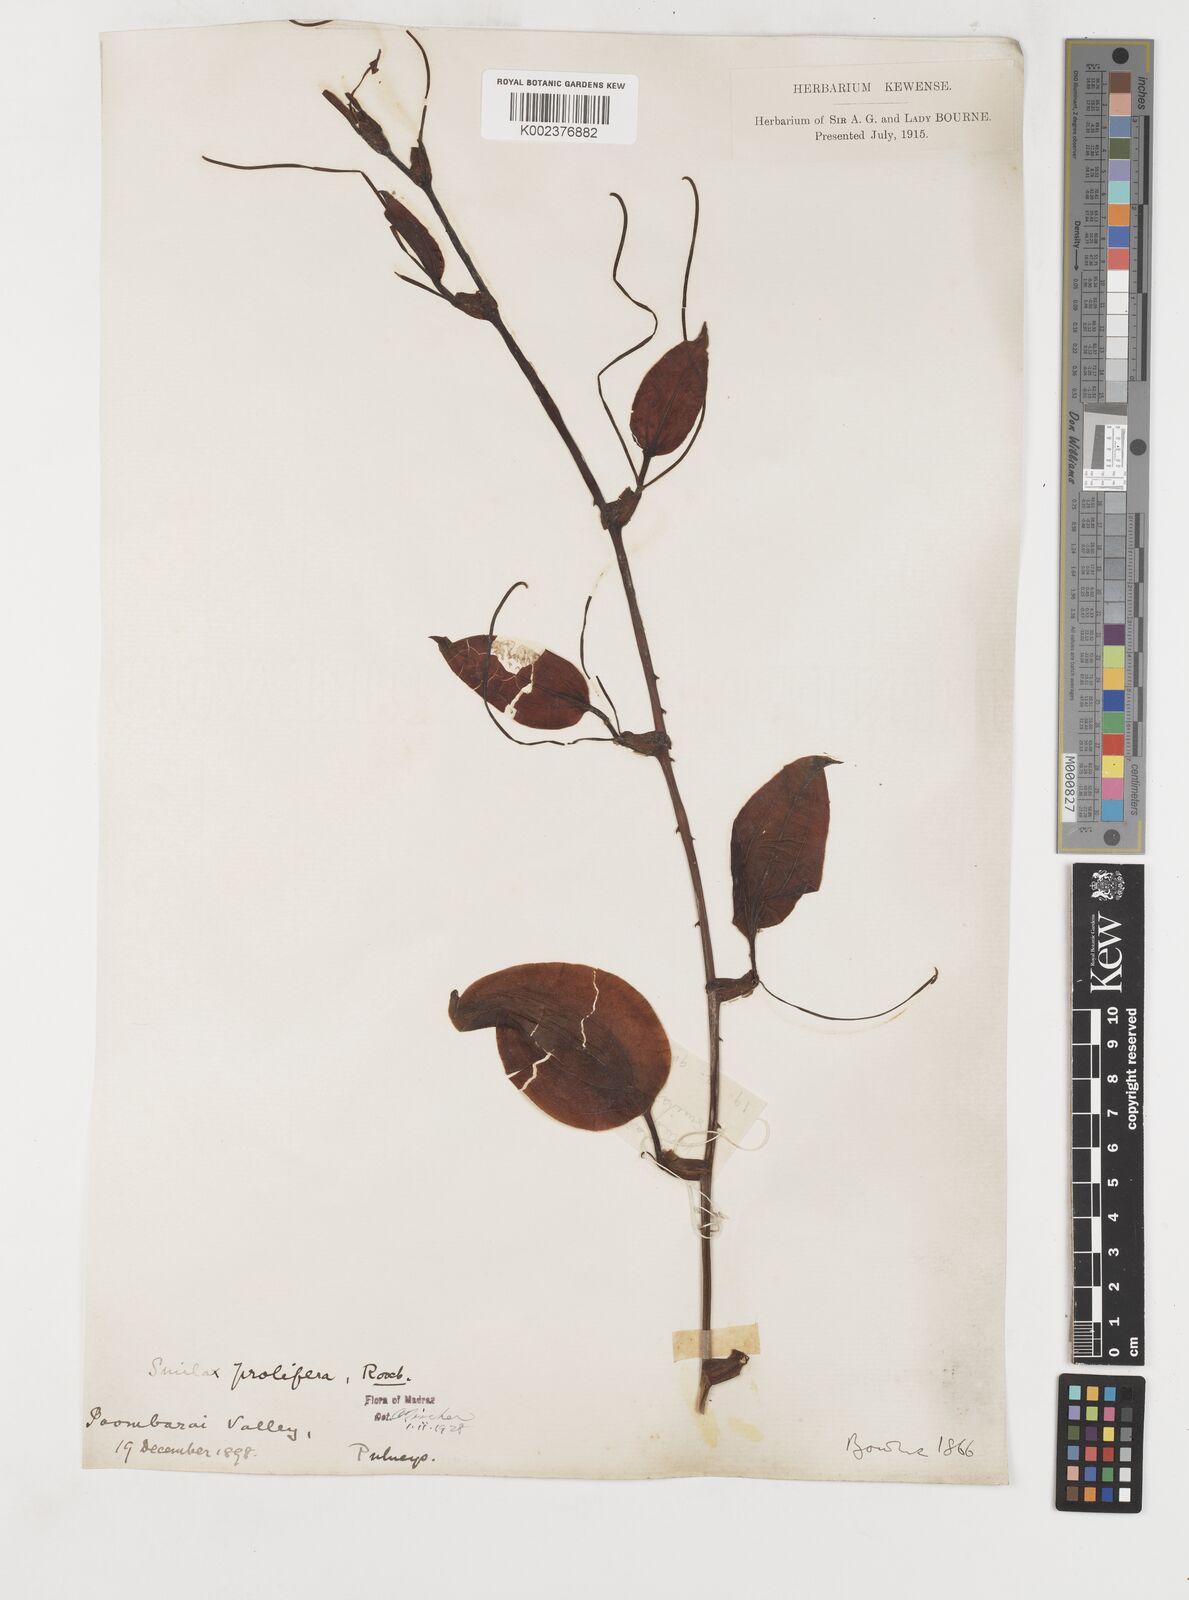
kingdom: Plantae
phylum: Tracheophyta
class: Liliopsida
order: Liliales
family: Smilacaceae
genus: Smilax
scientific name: Smilax prolifera
